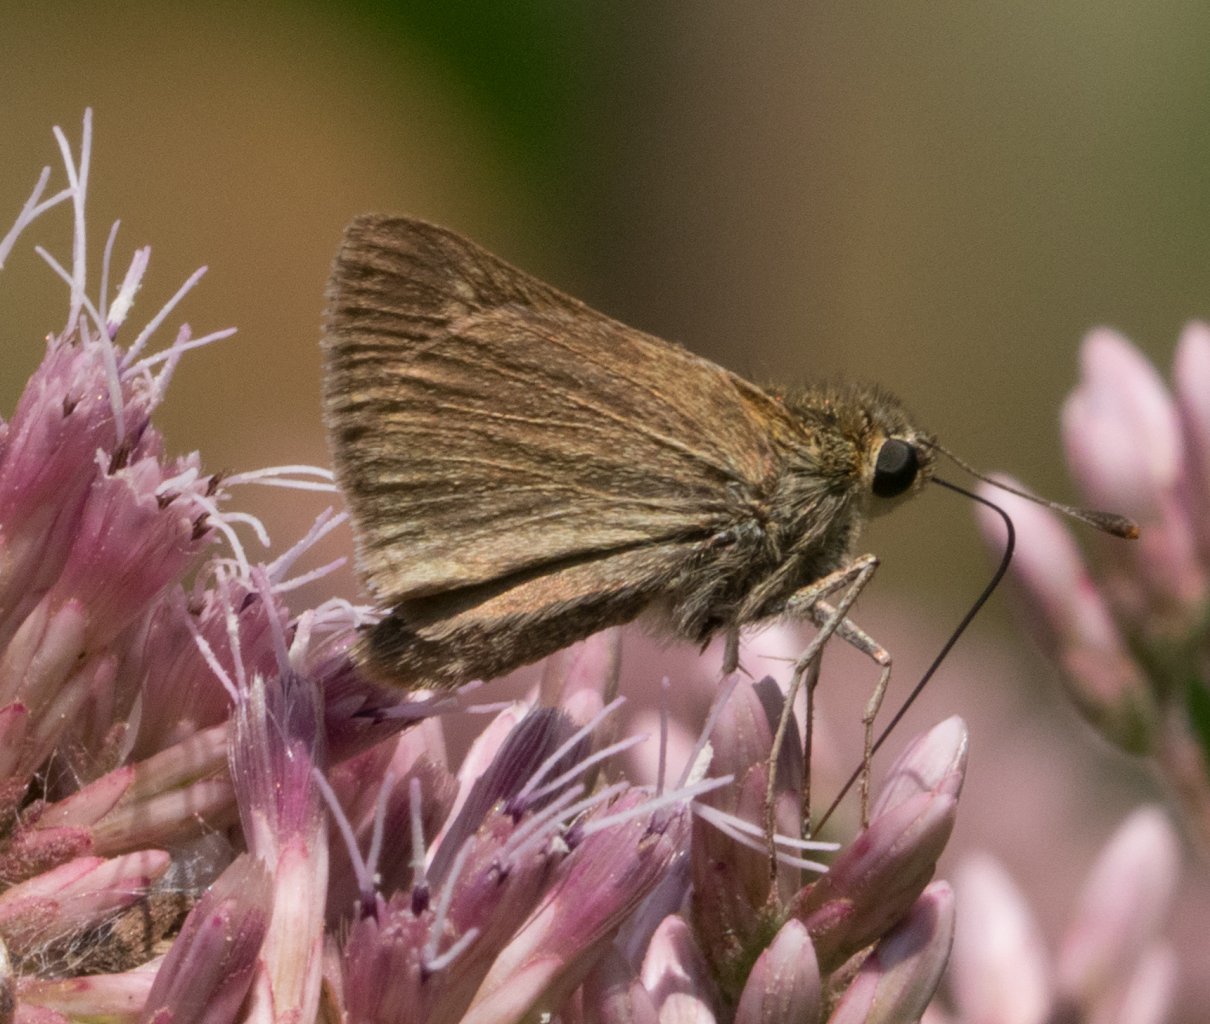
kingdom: Animalia
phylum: Arthropoda
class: Insecta
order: Lepidoptera
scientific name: Lepidoptera
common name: Butterflies
